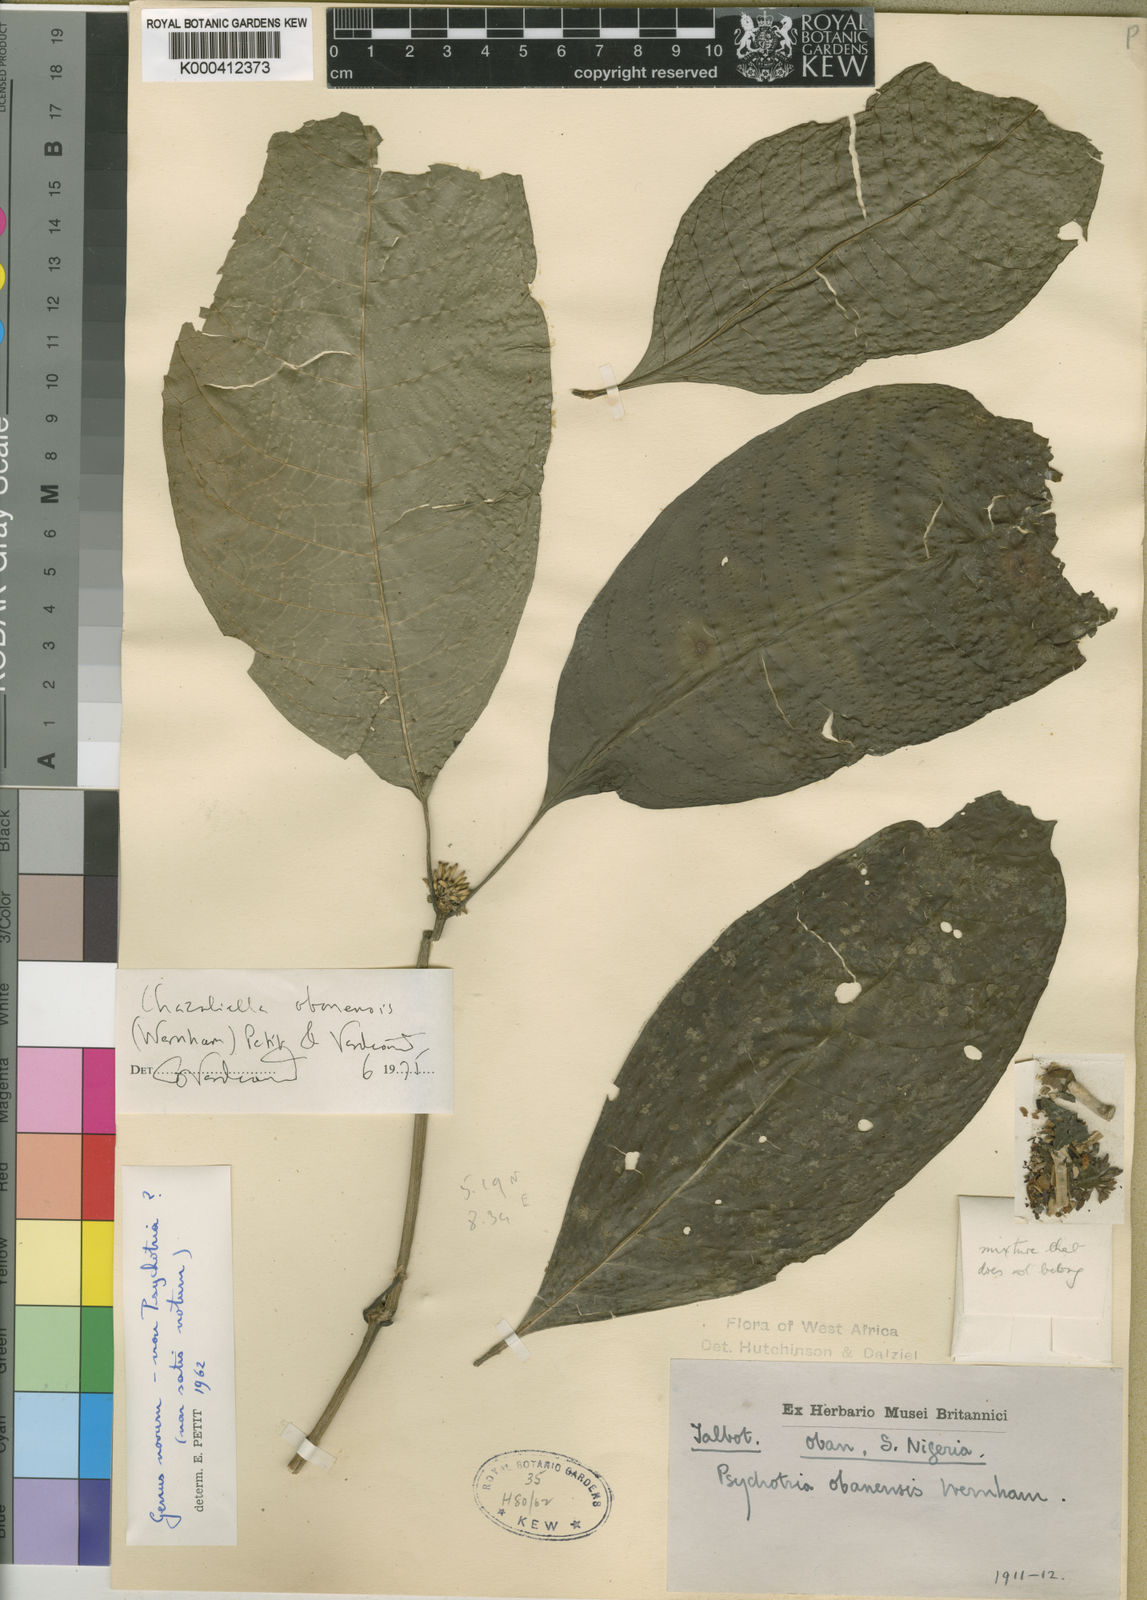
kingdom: Plantae
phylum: Tracheophyta
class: Magnoliopsida
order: Gentianales
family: Rubiaceae
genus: Eumachia
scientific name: Eumachia obanensis
